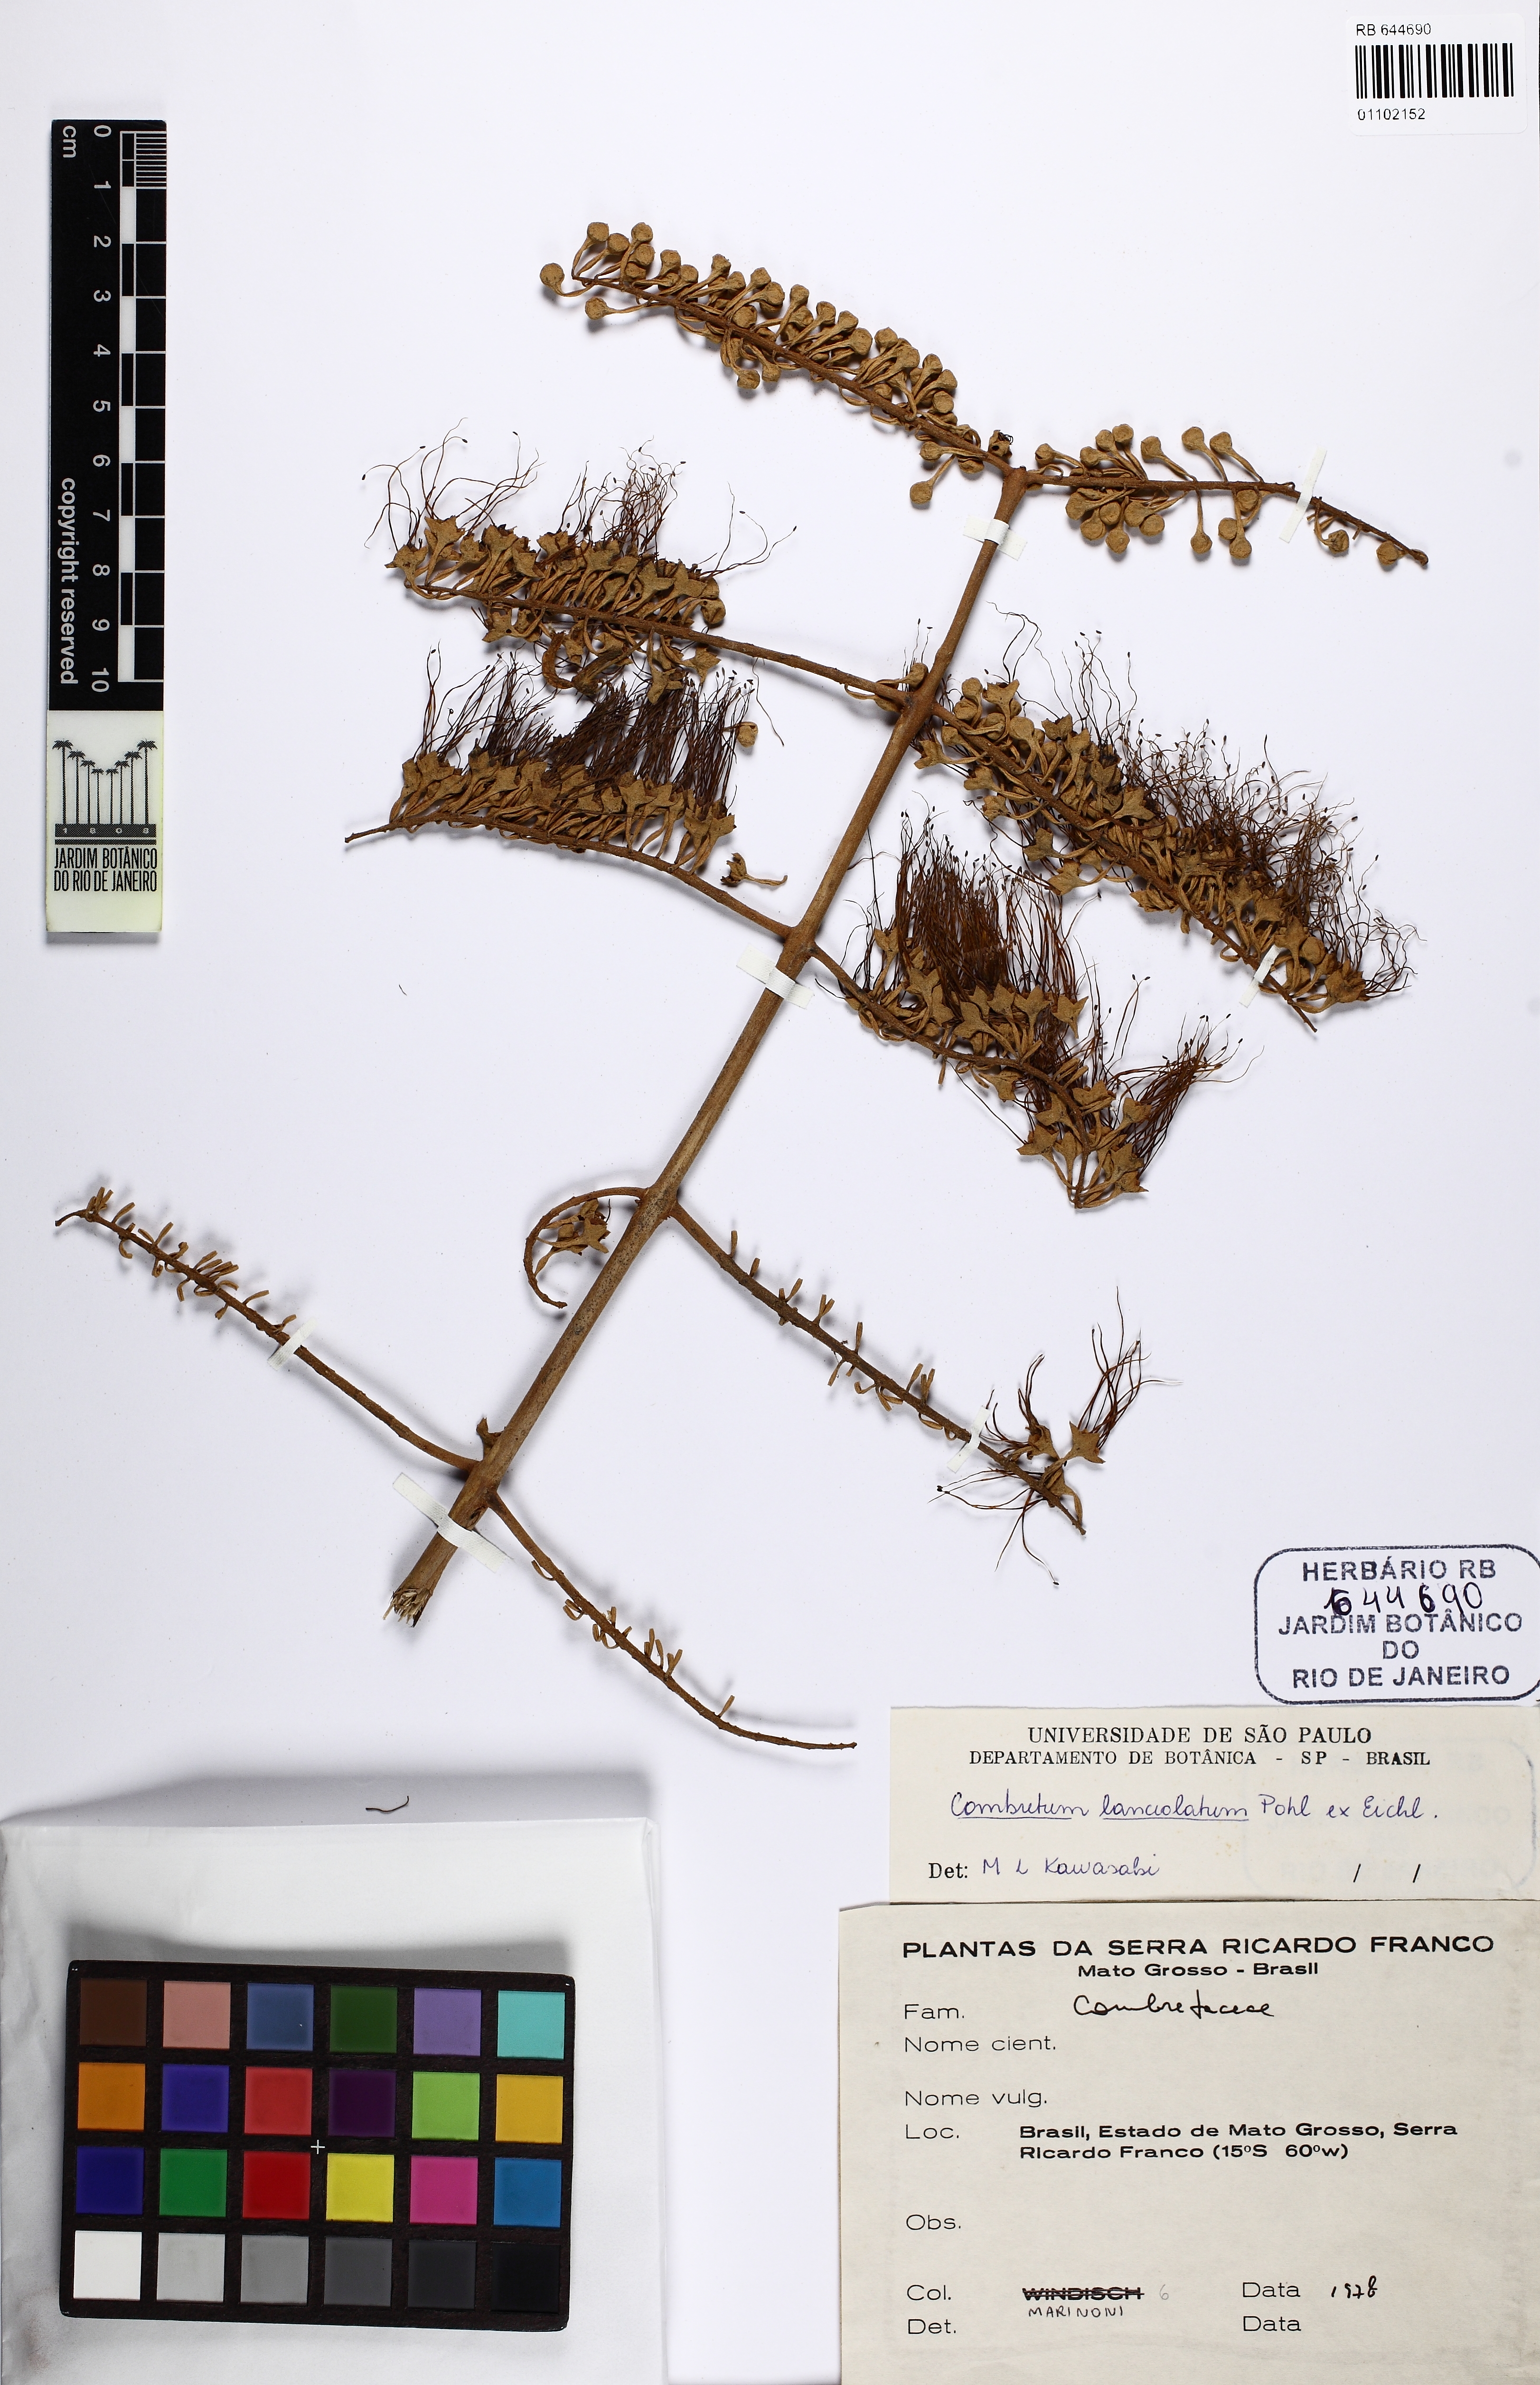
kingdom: Plantae
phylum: Tracheophyta
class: Magnoliopsida
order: Myrtales
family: Combretaceae
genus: Combretum
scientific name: Combretum lanceolatum
